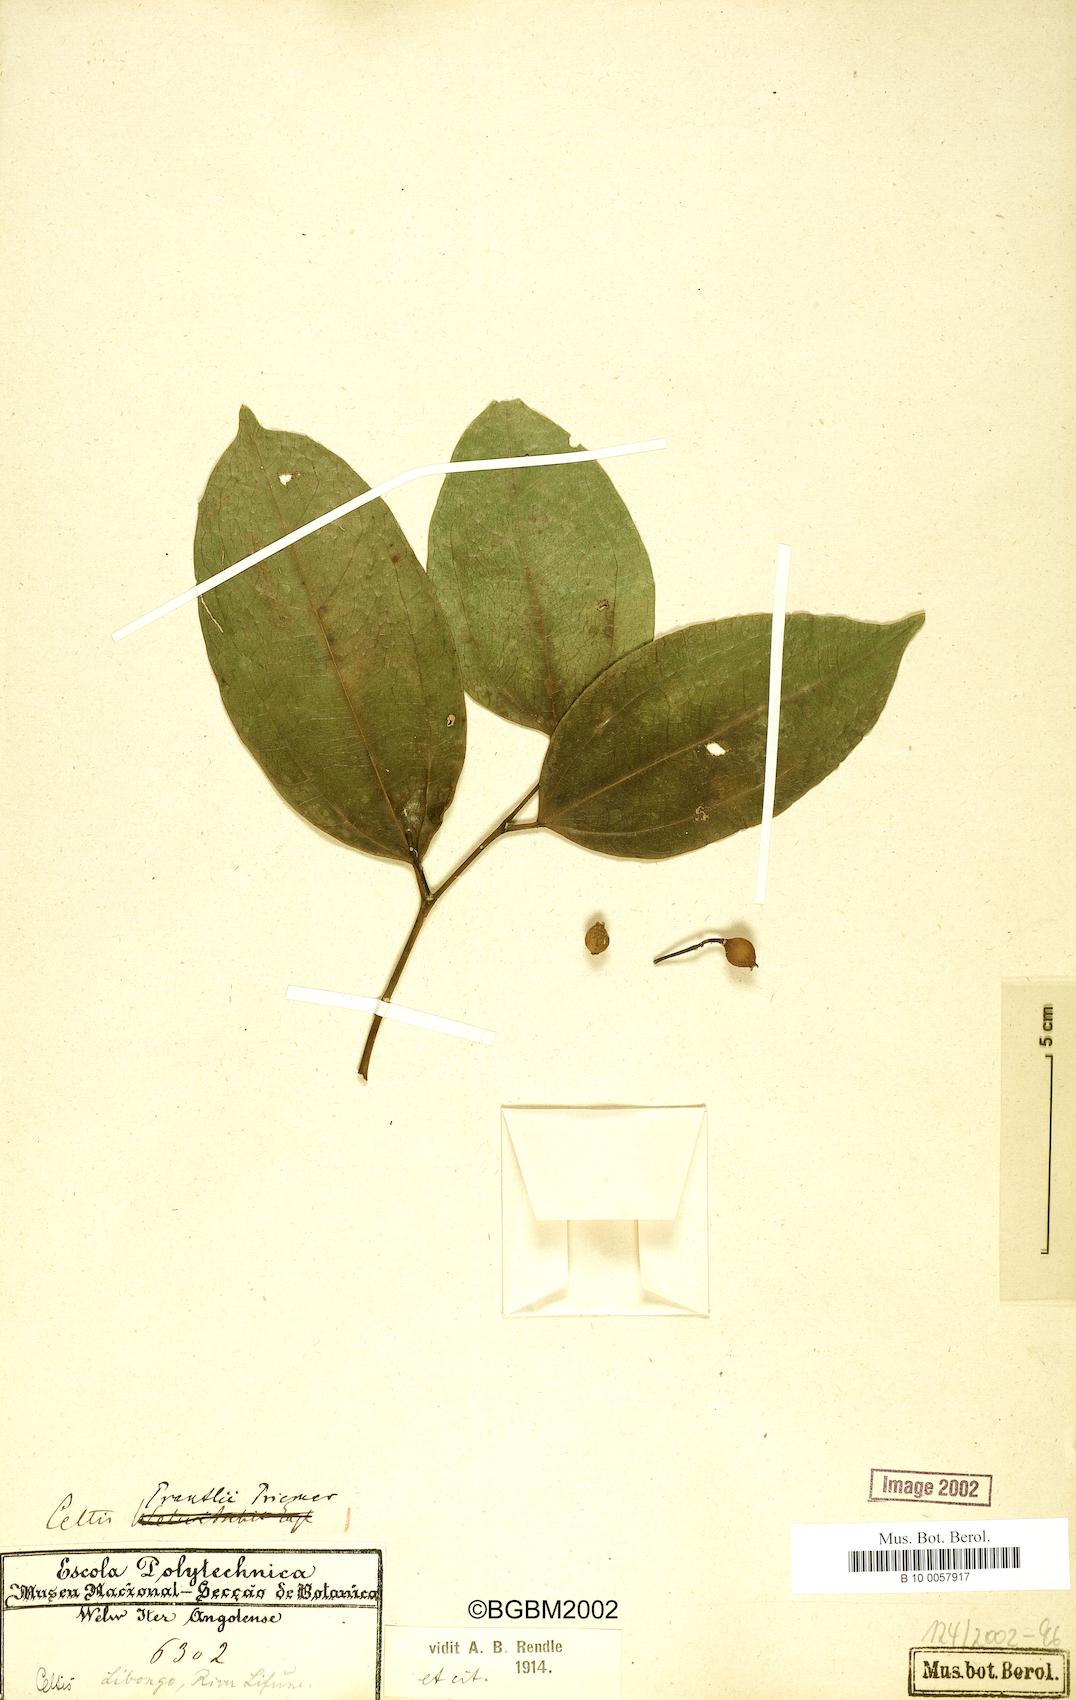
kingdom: Plantae
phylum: Tracheophyta
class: Magnoliopsida
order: Rosales
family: Cannabaceae
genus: Celtis
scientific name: Celtis philippensis
